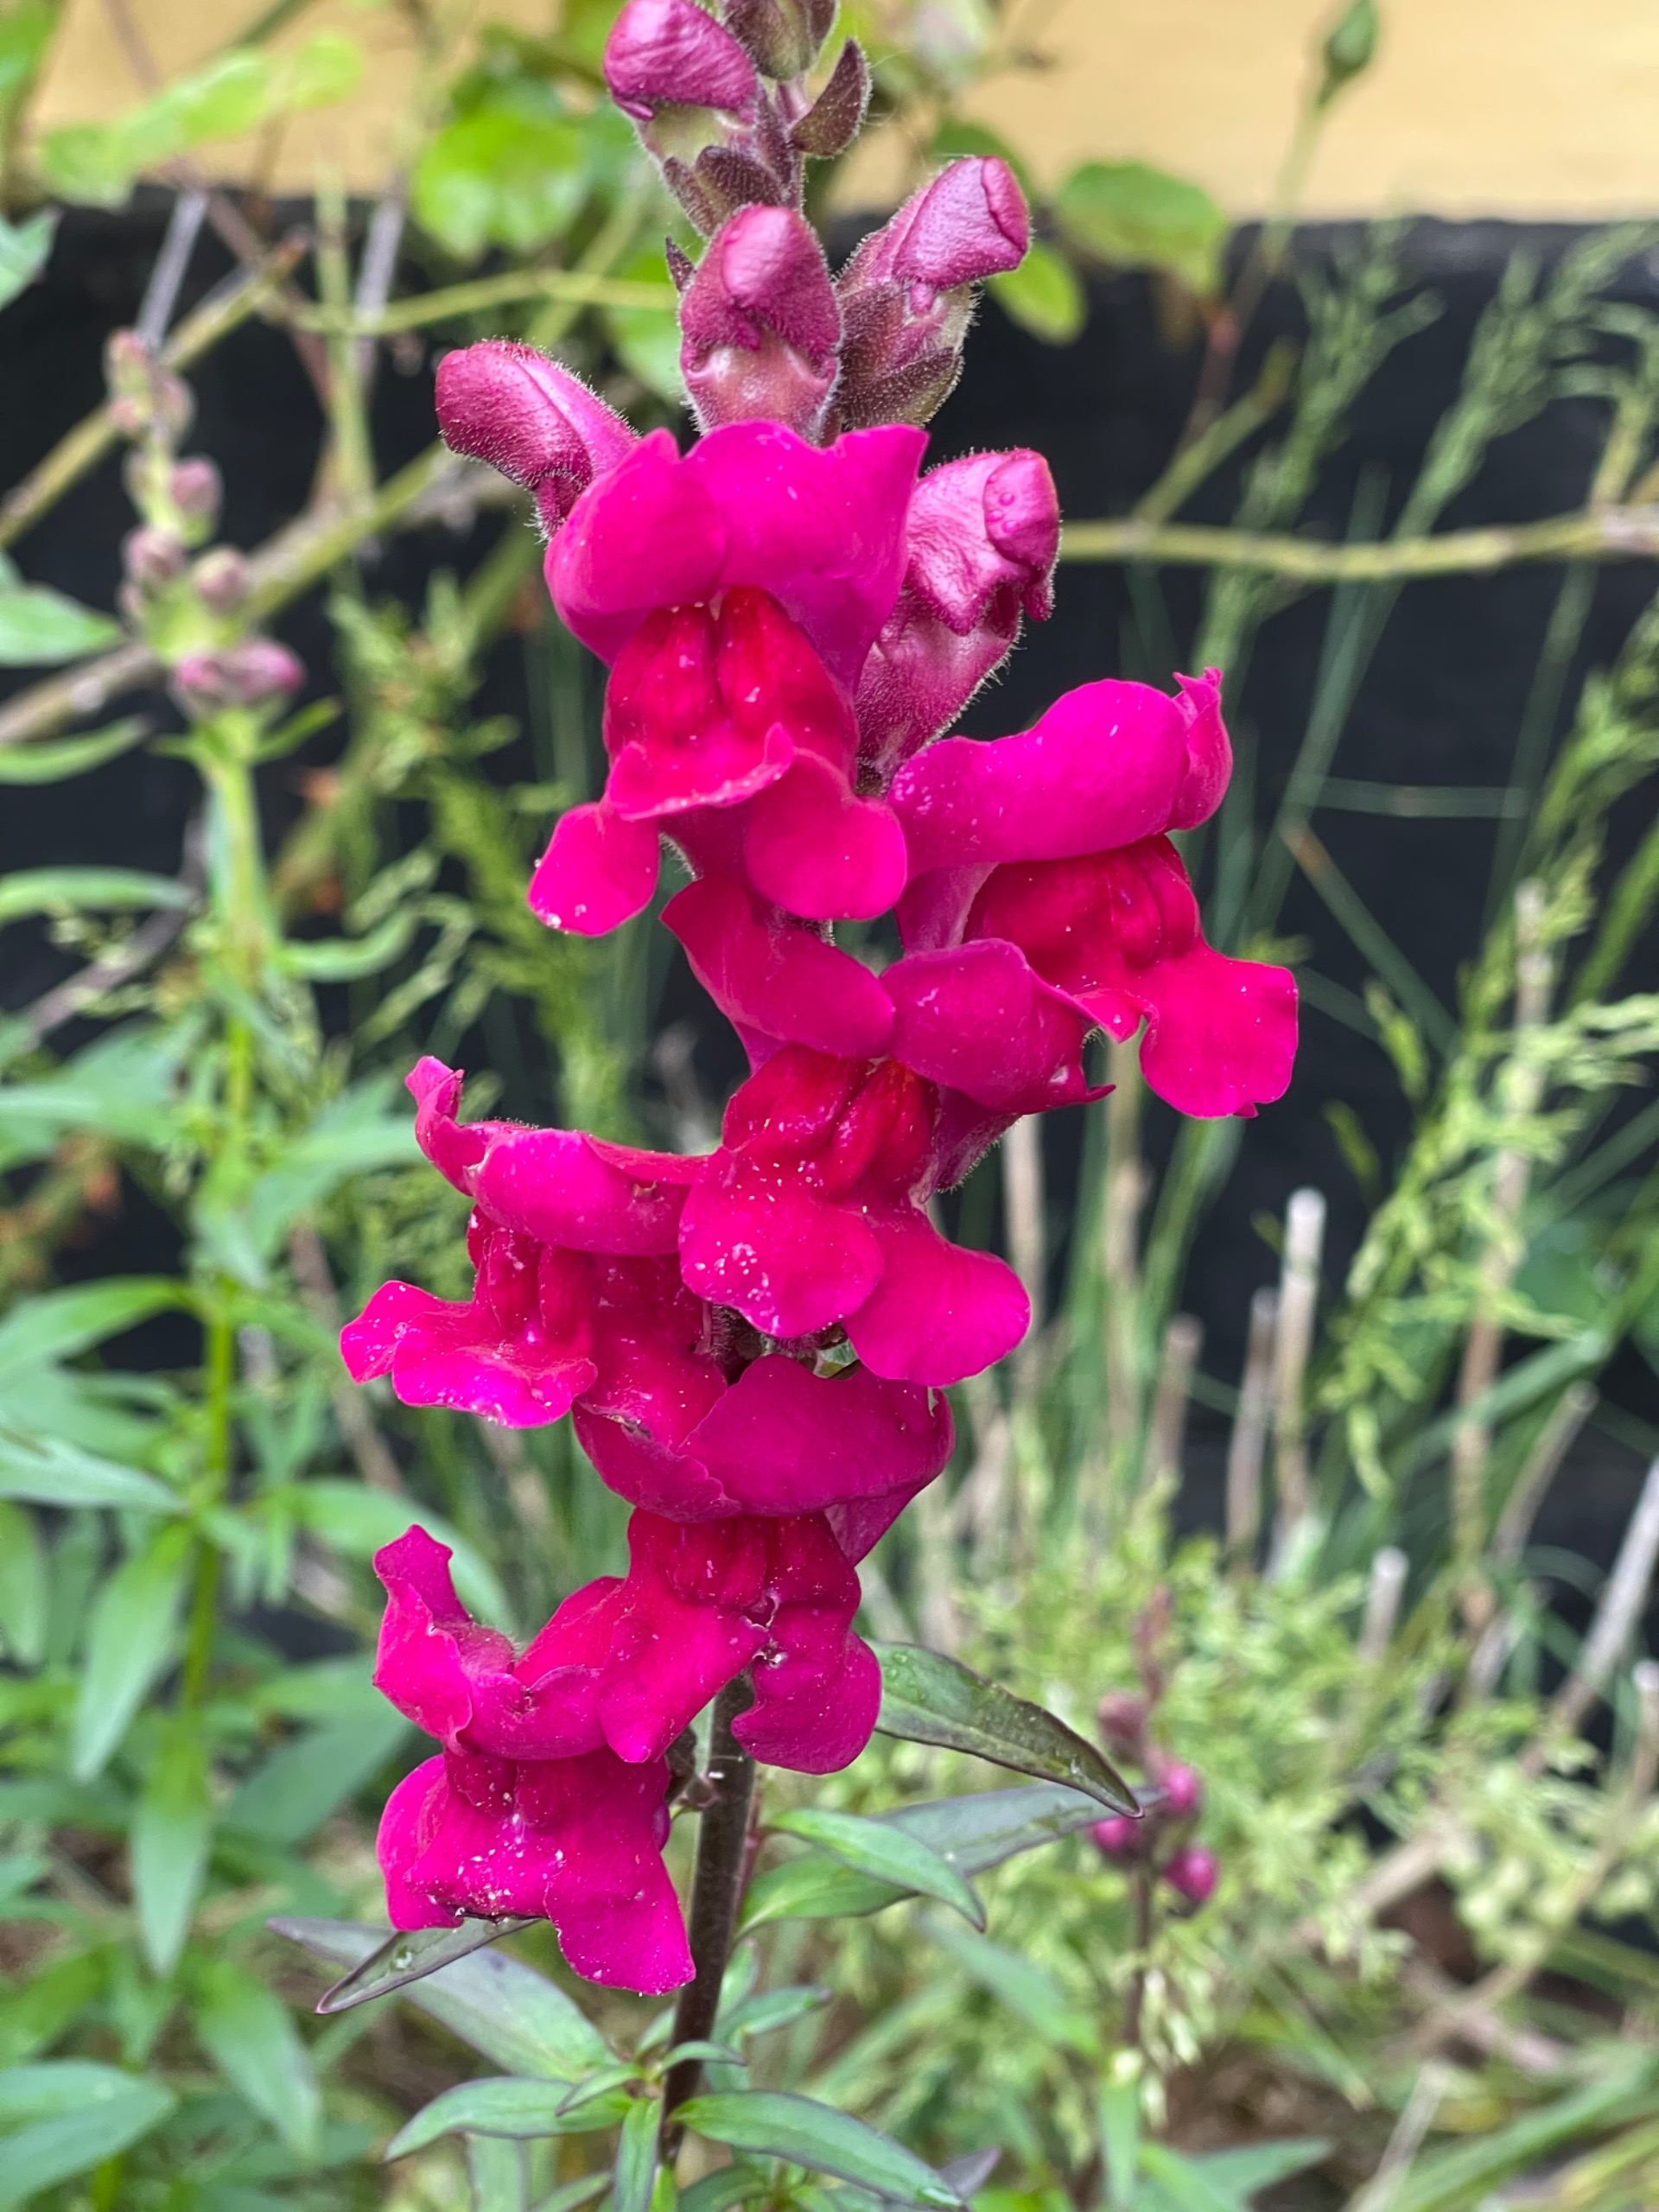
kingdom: Plantae
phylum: Tracheophyta
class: Magnoliopsida
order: Lamiales
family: Plantaginaceae
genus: Antirrhinum
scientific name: Antirrhinum majus
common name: Have-løvemund
